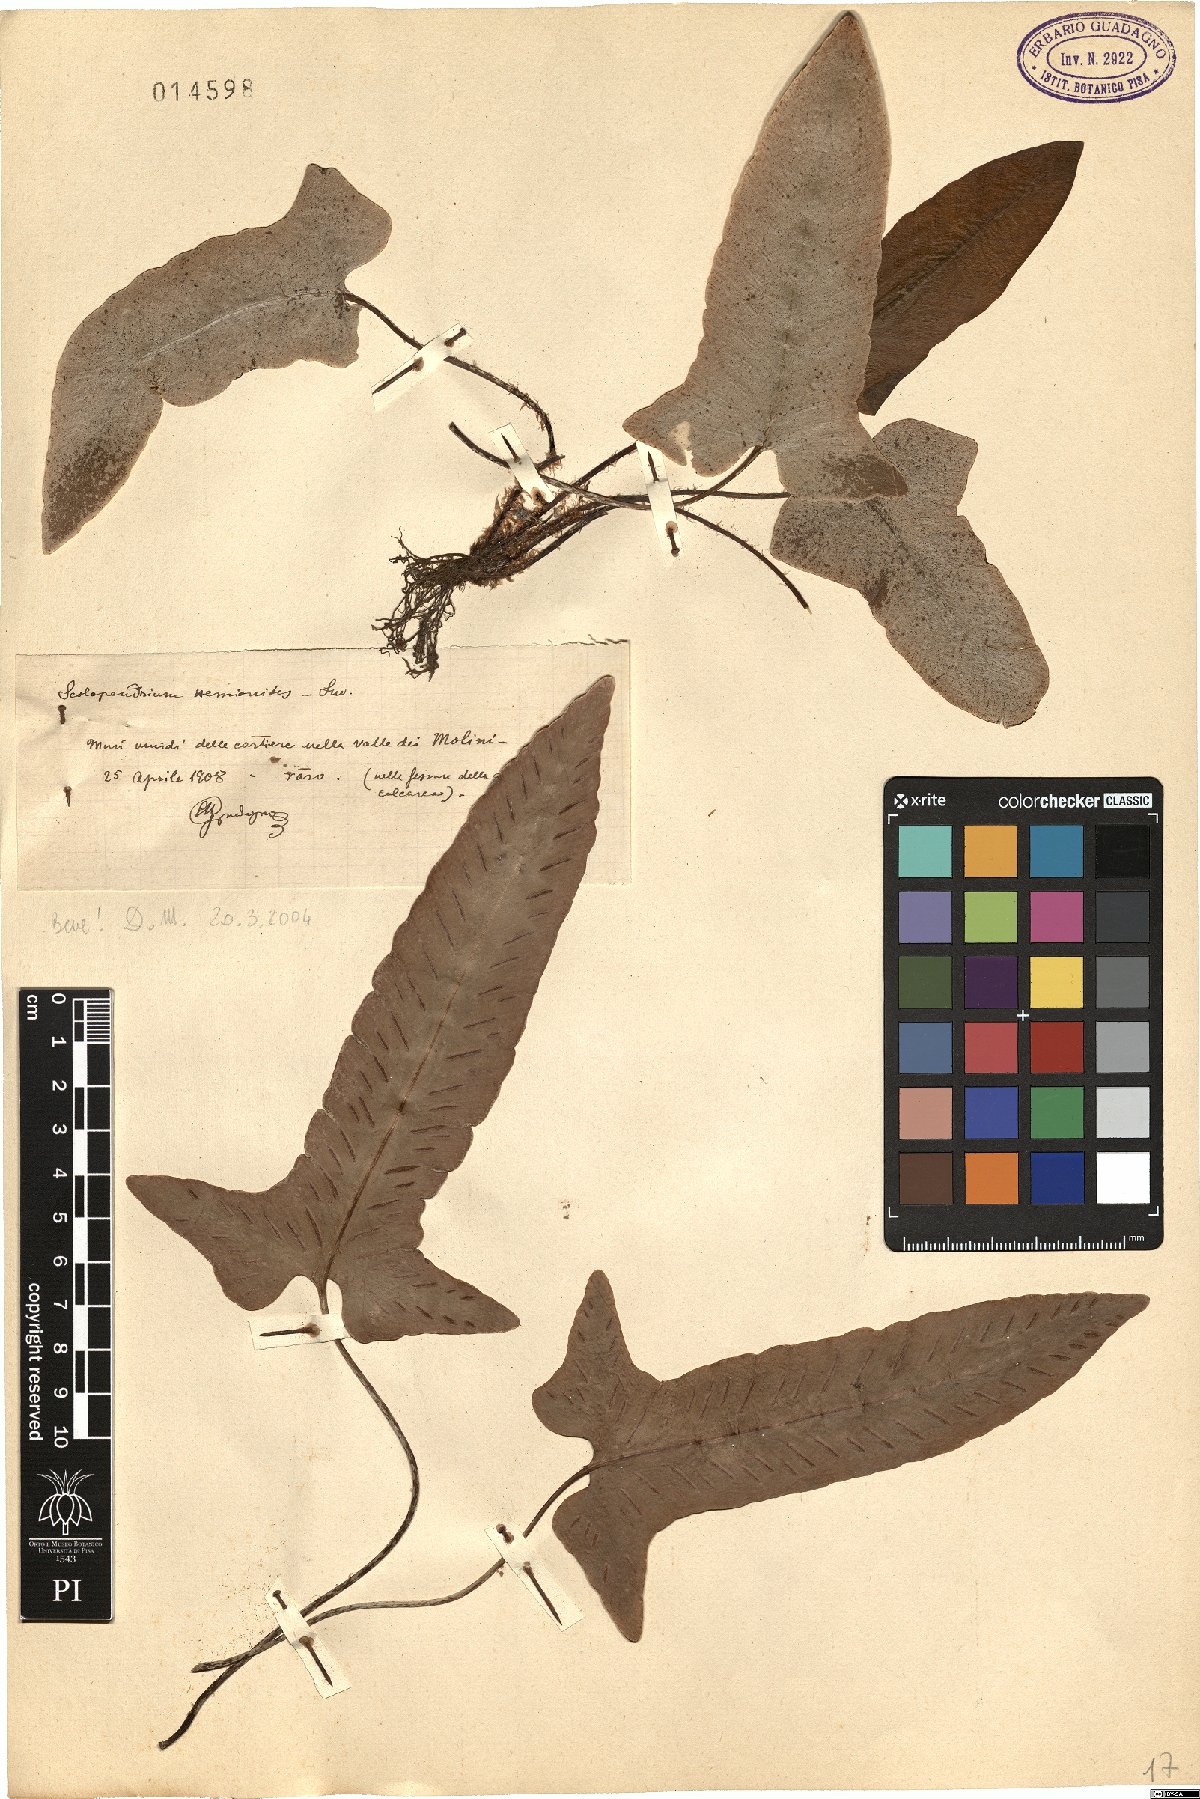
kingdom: Plantae
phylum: Tracheophyta
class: Polypodiopsida
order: Polypodiales
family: Aspleniaceae
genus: Asplenium
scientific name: Asplenium sagittatum
